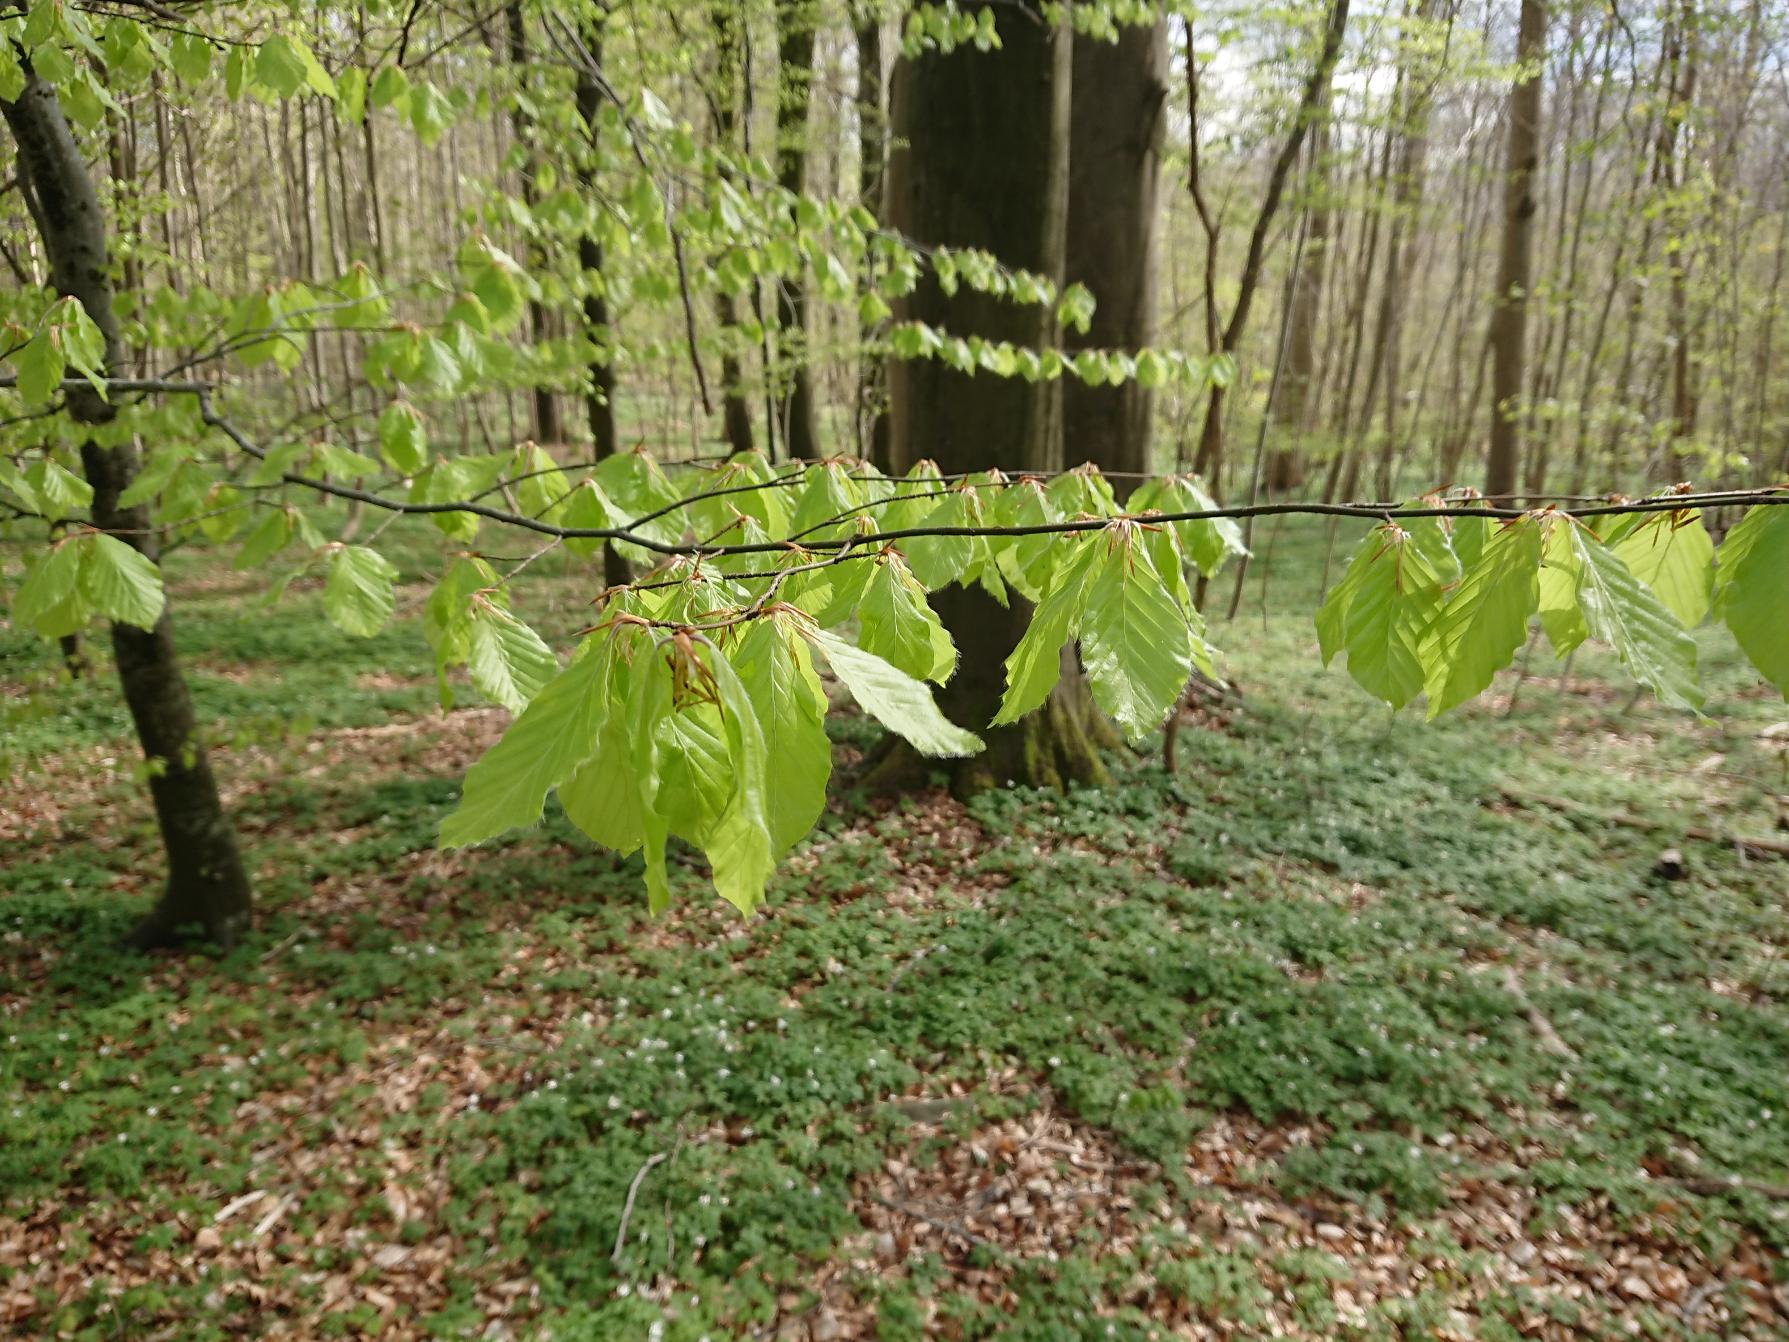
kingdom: Plantae
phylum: Tracheophyta
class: Magnoliopsida
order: Fagales
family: Fagaceae
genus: Fagus
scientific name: Fagus sylvatica
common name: Bøg
